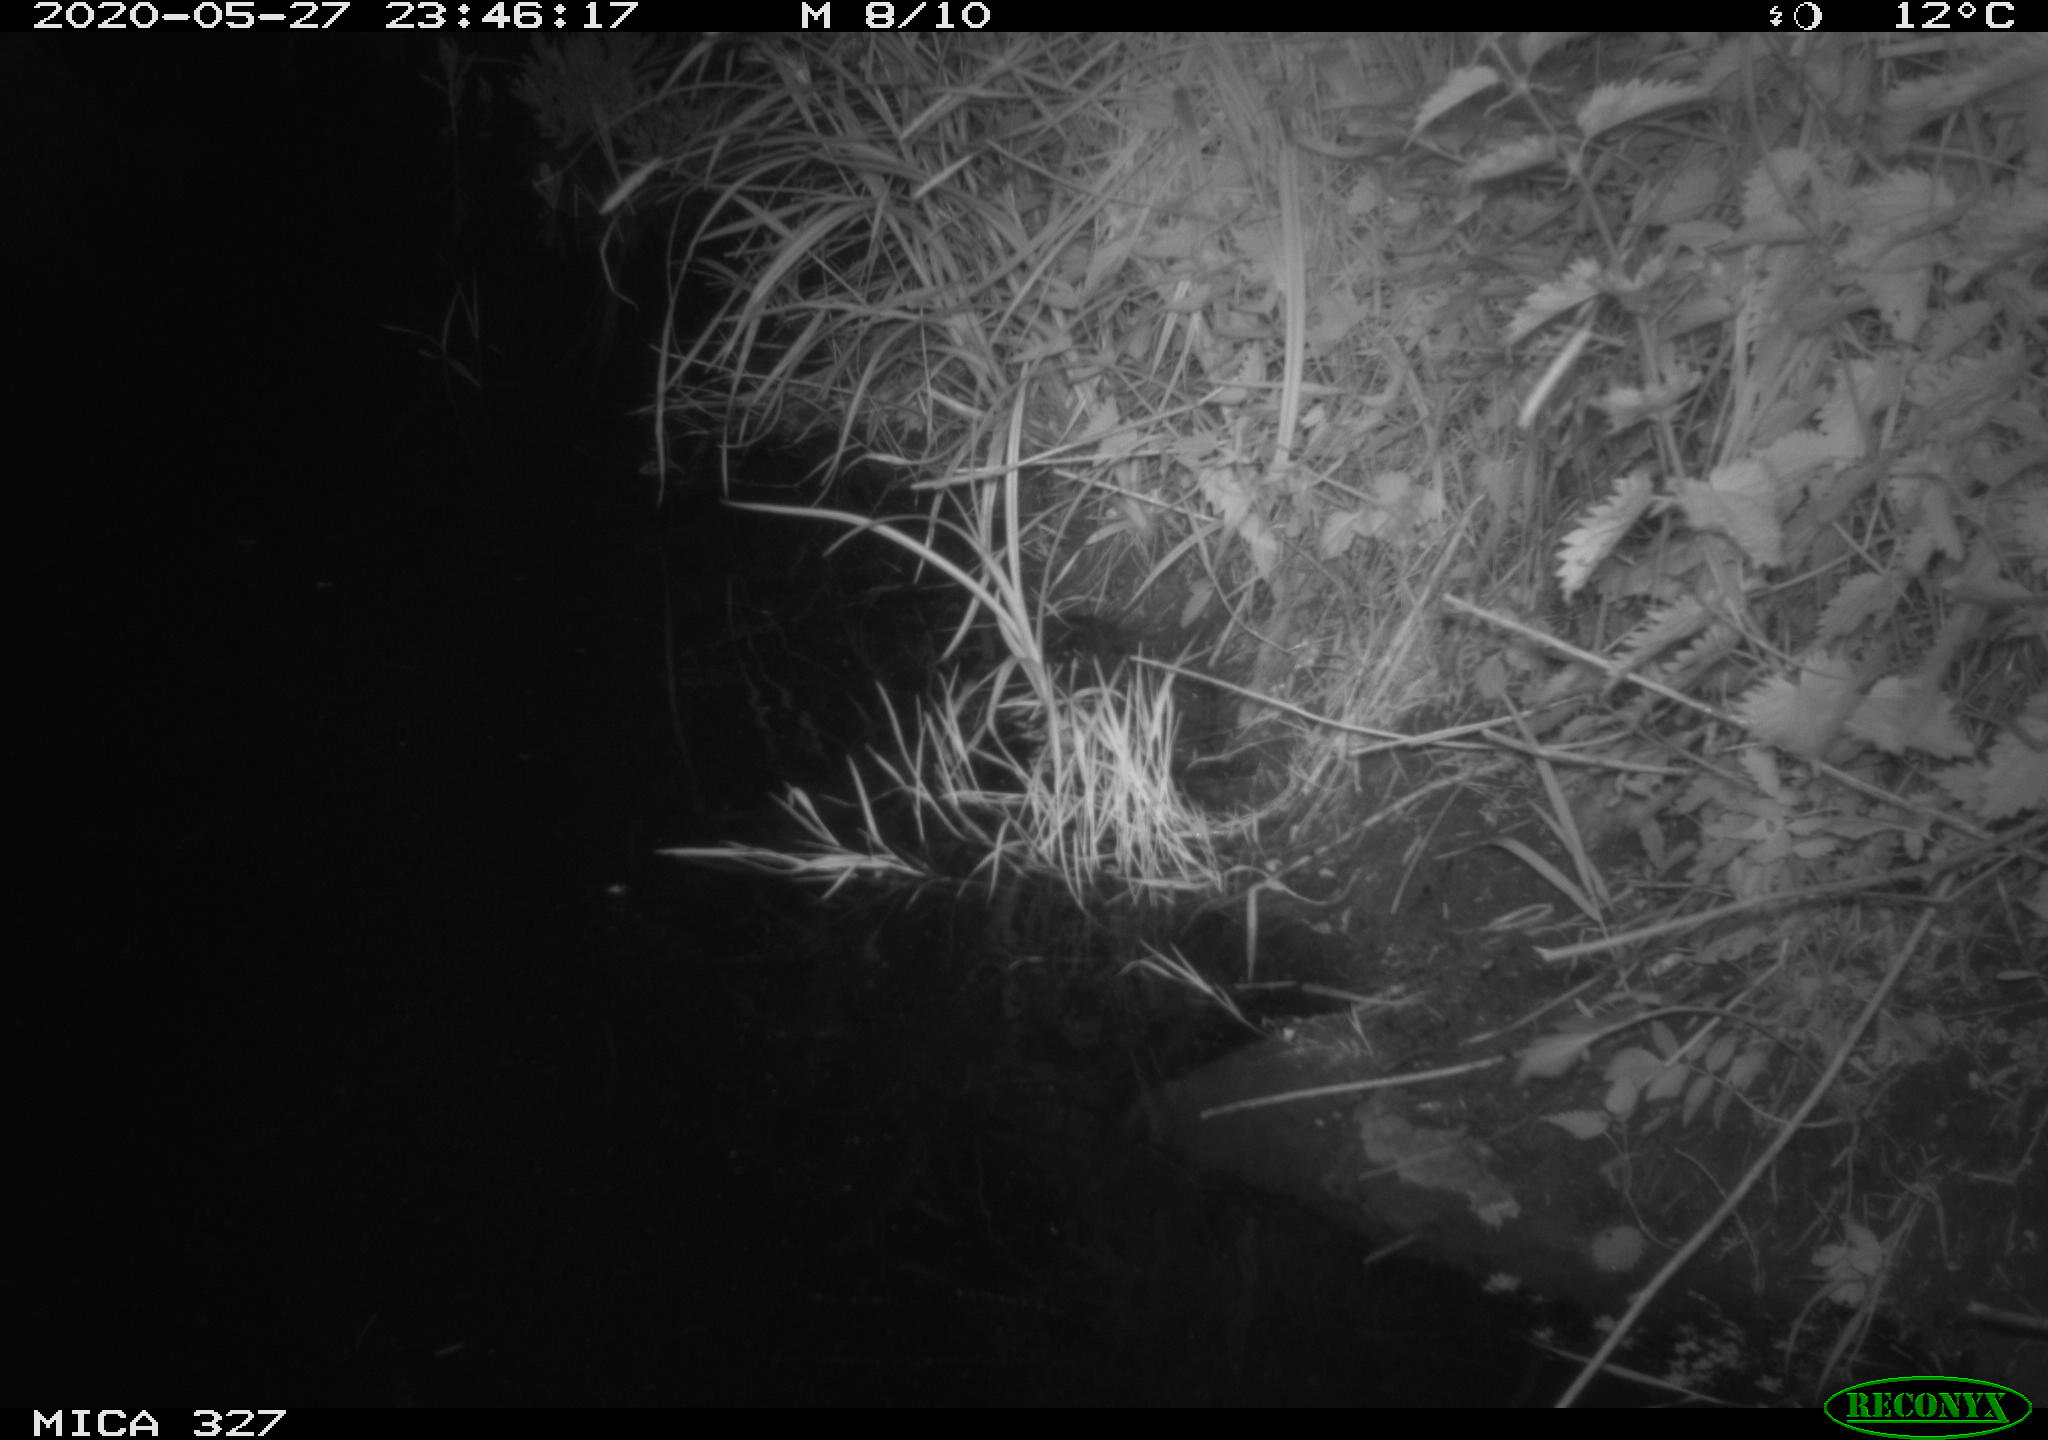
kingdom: Animalia
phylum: Chordata
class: Mammalia
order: Rodentia
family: Muridae
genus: Rattus
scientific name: Rattus norvegicus
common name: Brown rat
